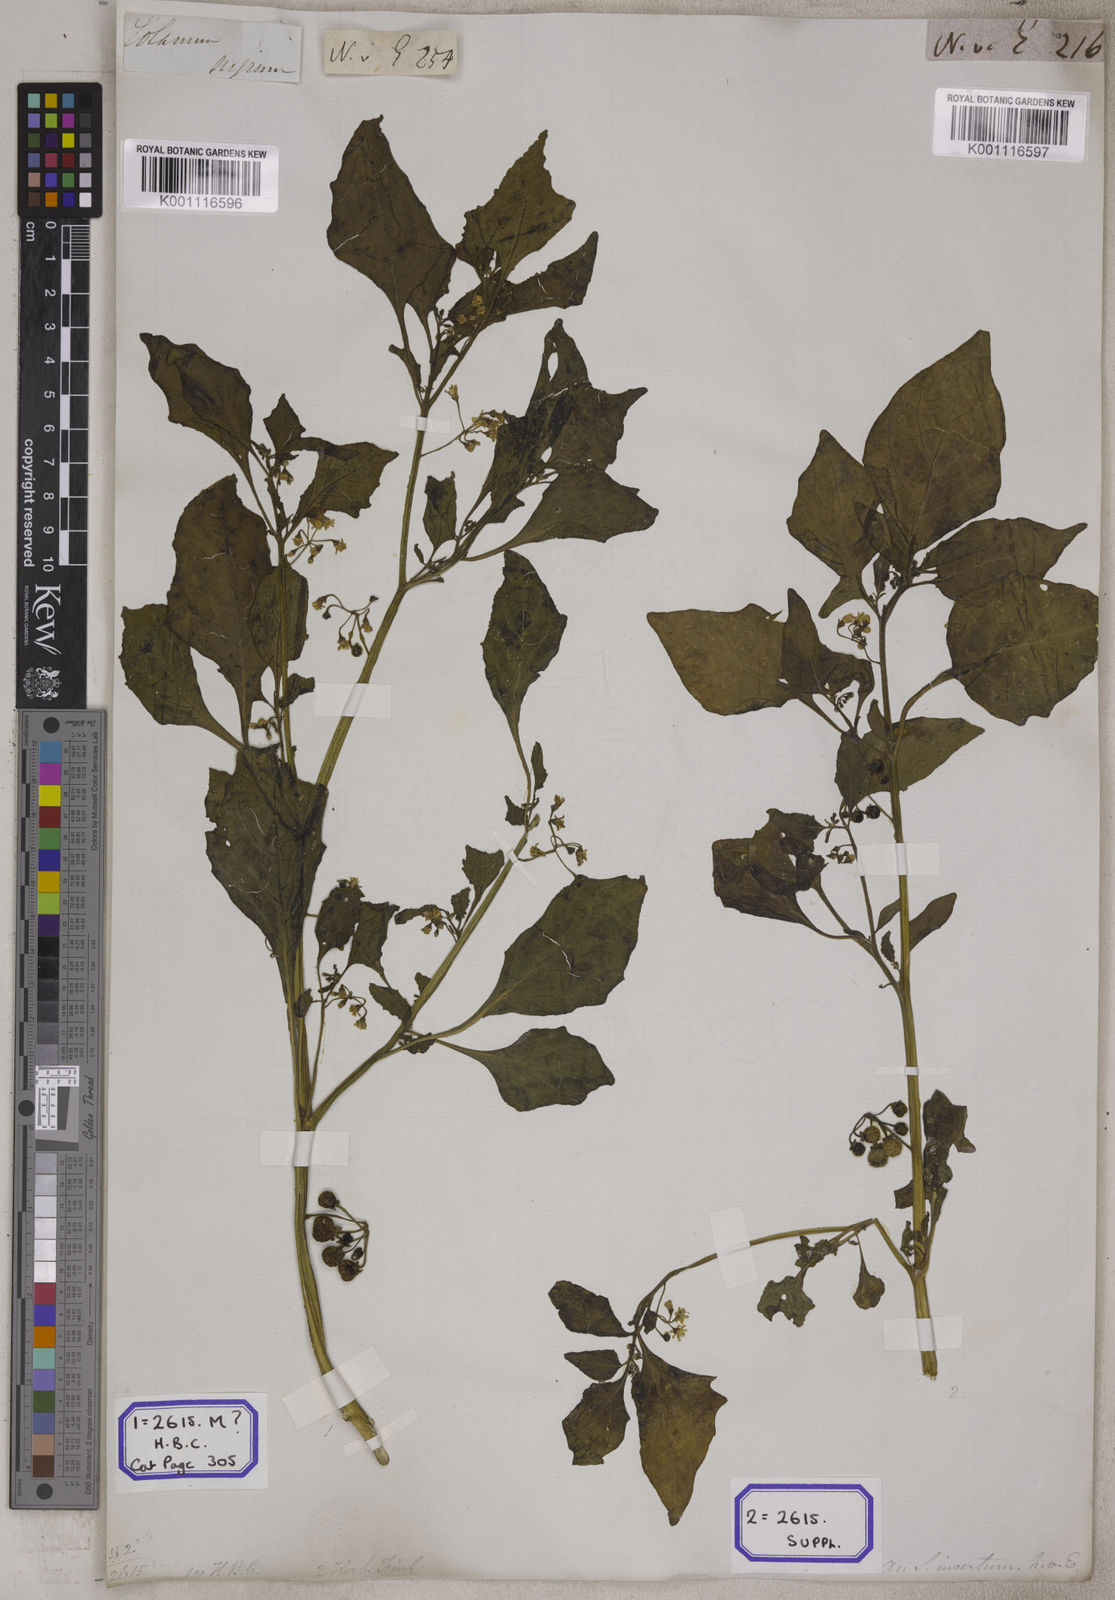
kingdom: Plantae
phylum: Tracheophyta
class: Magnoliopsida
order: Solanales
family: Solanaceae
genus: Solanum
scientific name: Solanum nigrum
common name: Black nightshade
